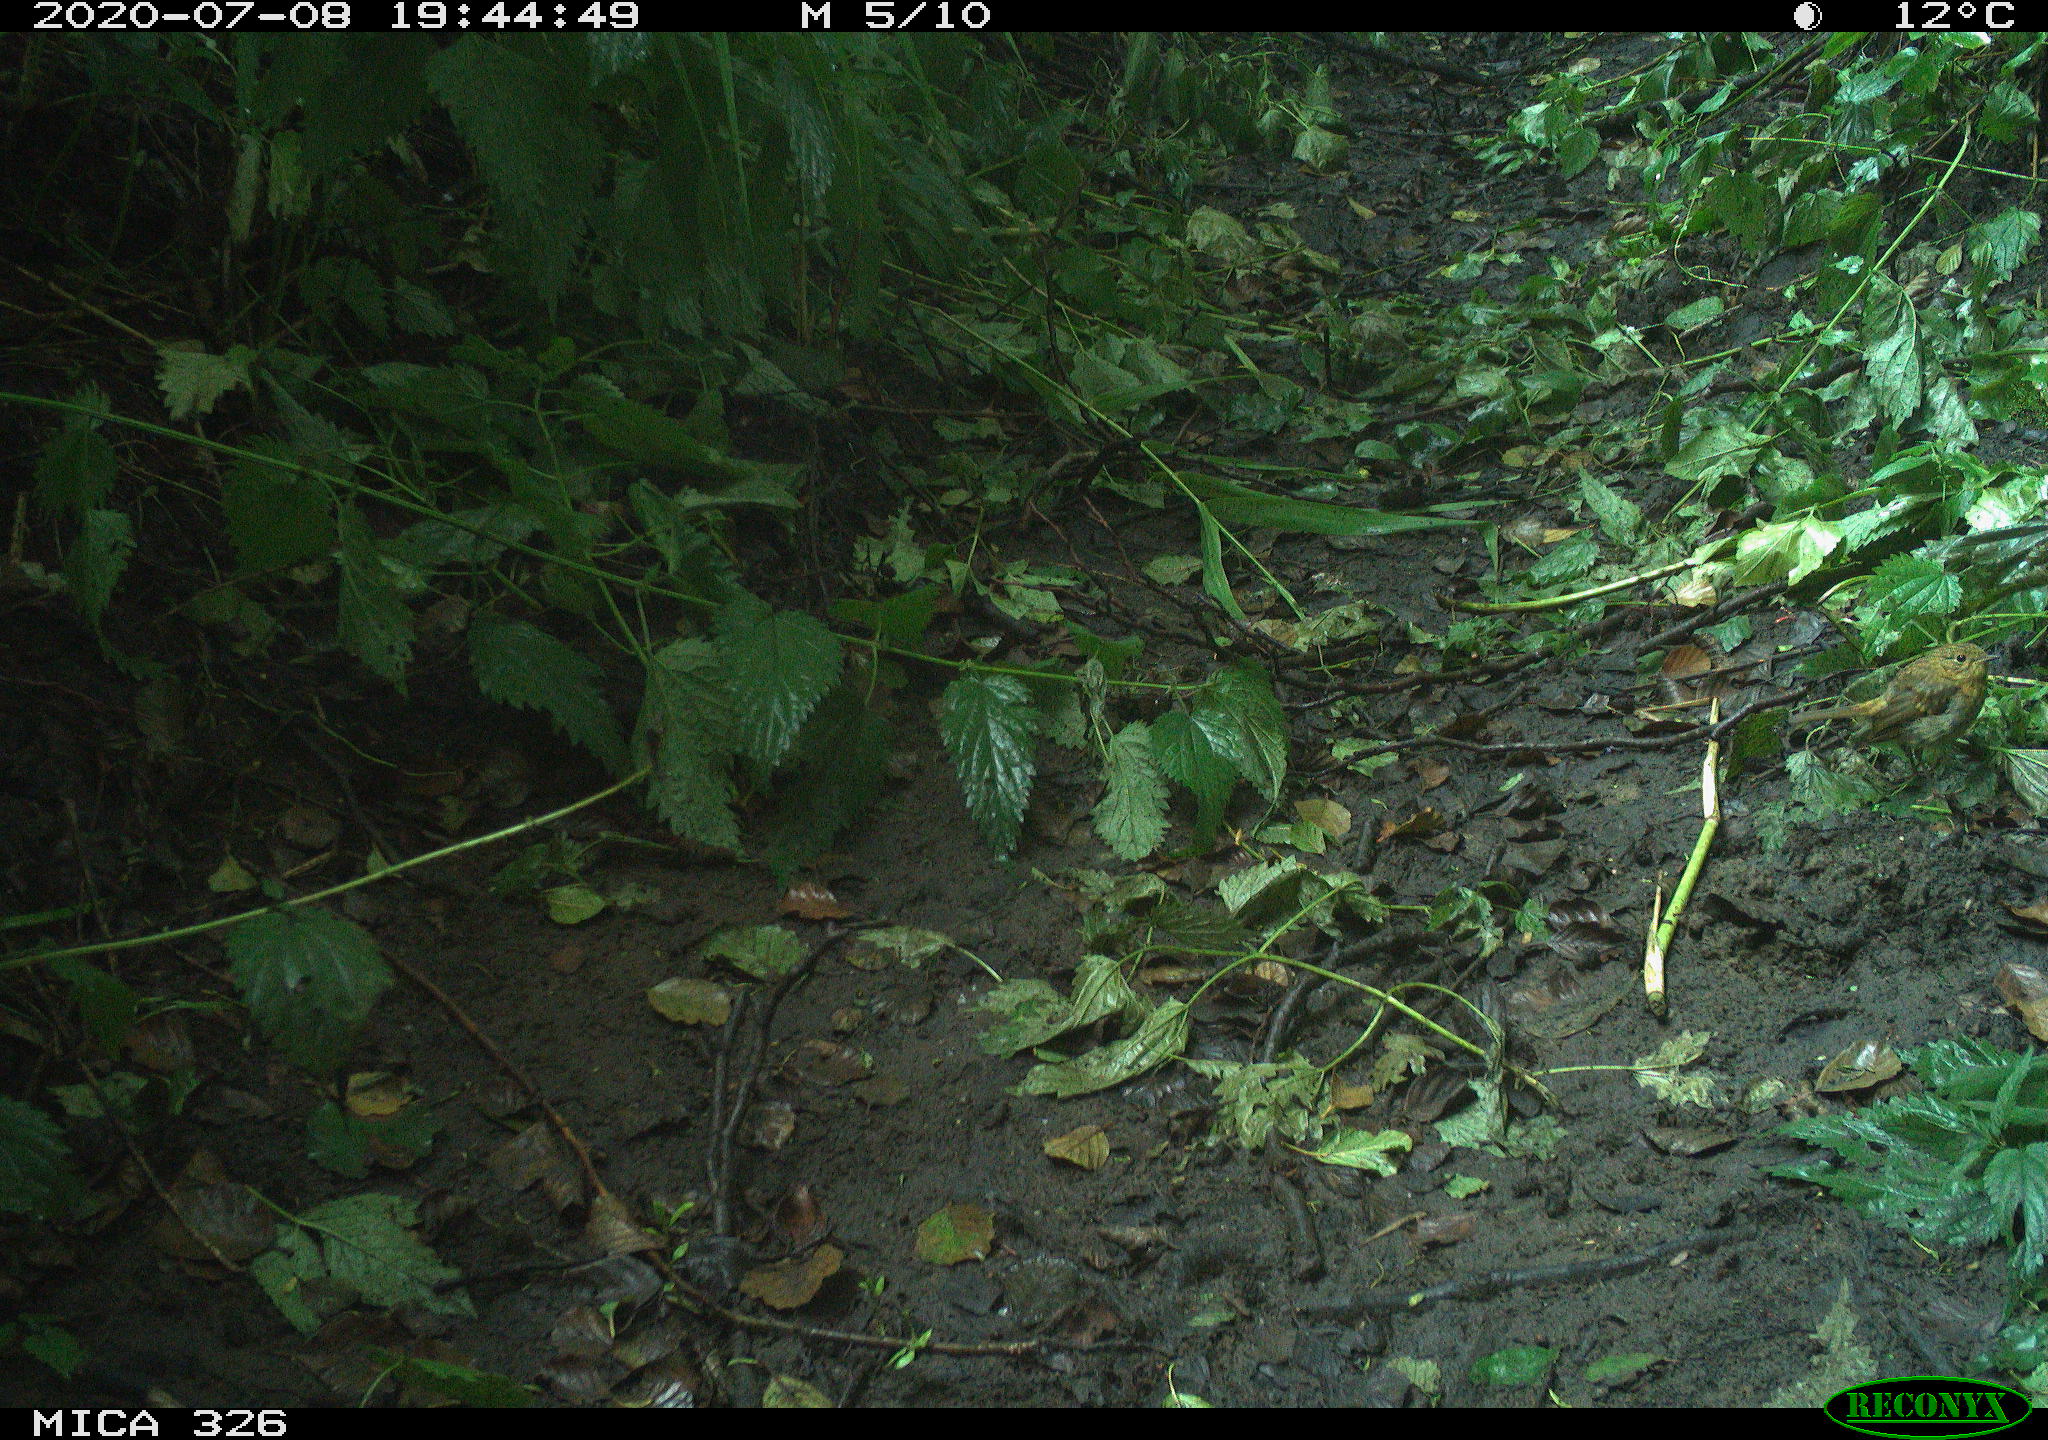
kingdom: Animalia
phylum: Chordata
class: Aves
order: Passeriformes
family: Muscicapidae
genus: Erithacus
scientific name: Erithacus rubecula
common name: European robin
